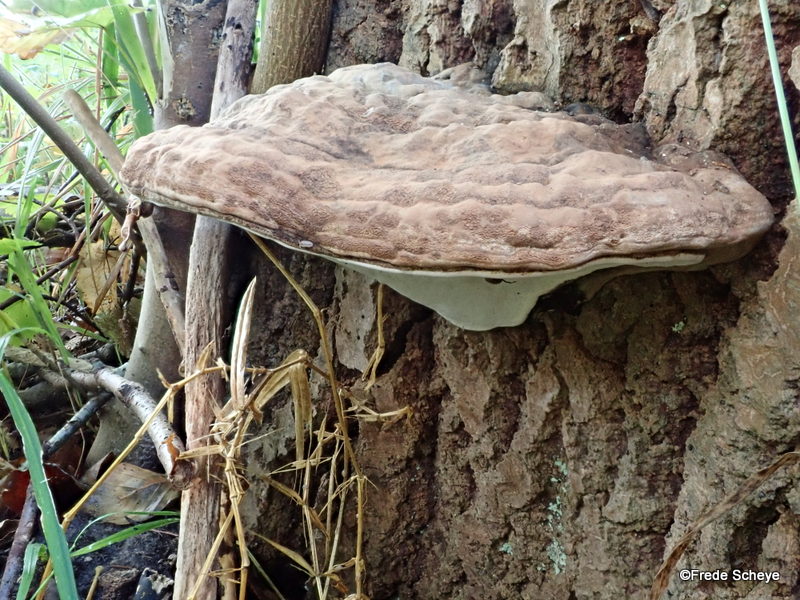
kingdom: Fungi
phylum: Basidiomycota
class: Agaricomycetes
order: Polyporales
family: Polyporaceae
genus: Ganoderma
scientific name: Ganoderma applanatum
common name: flad lakporesvamp
